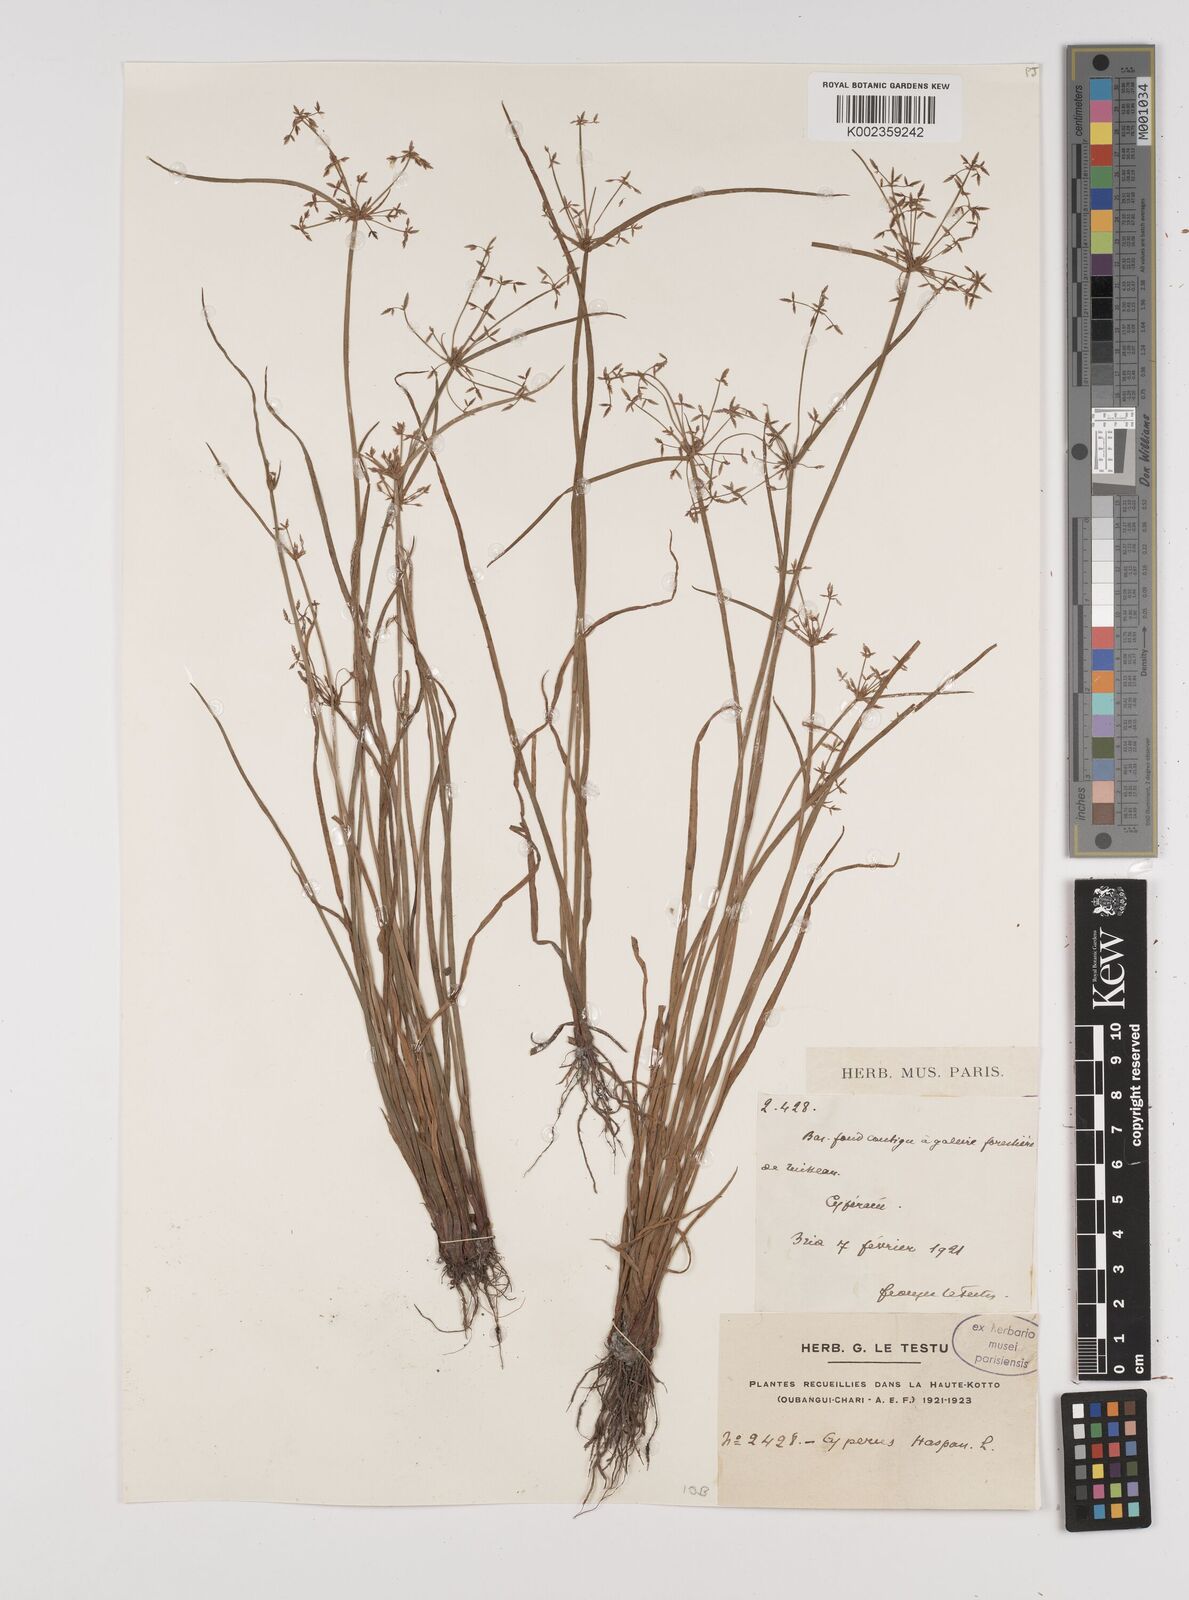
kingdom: Plantae
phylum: Tracheophyta
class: Liliopsida
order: Poales
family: Cyperaceae
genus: Cyperus
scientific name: Cyperus haspan
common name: Haspan flatsedge
